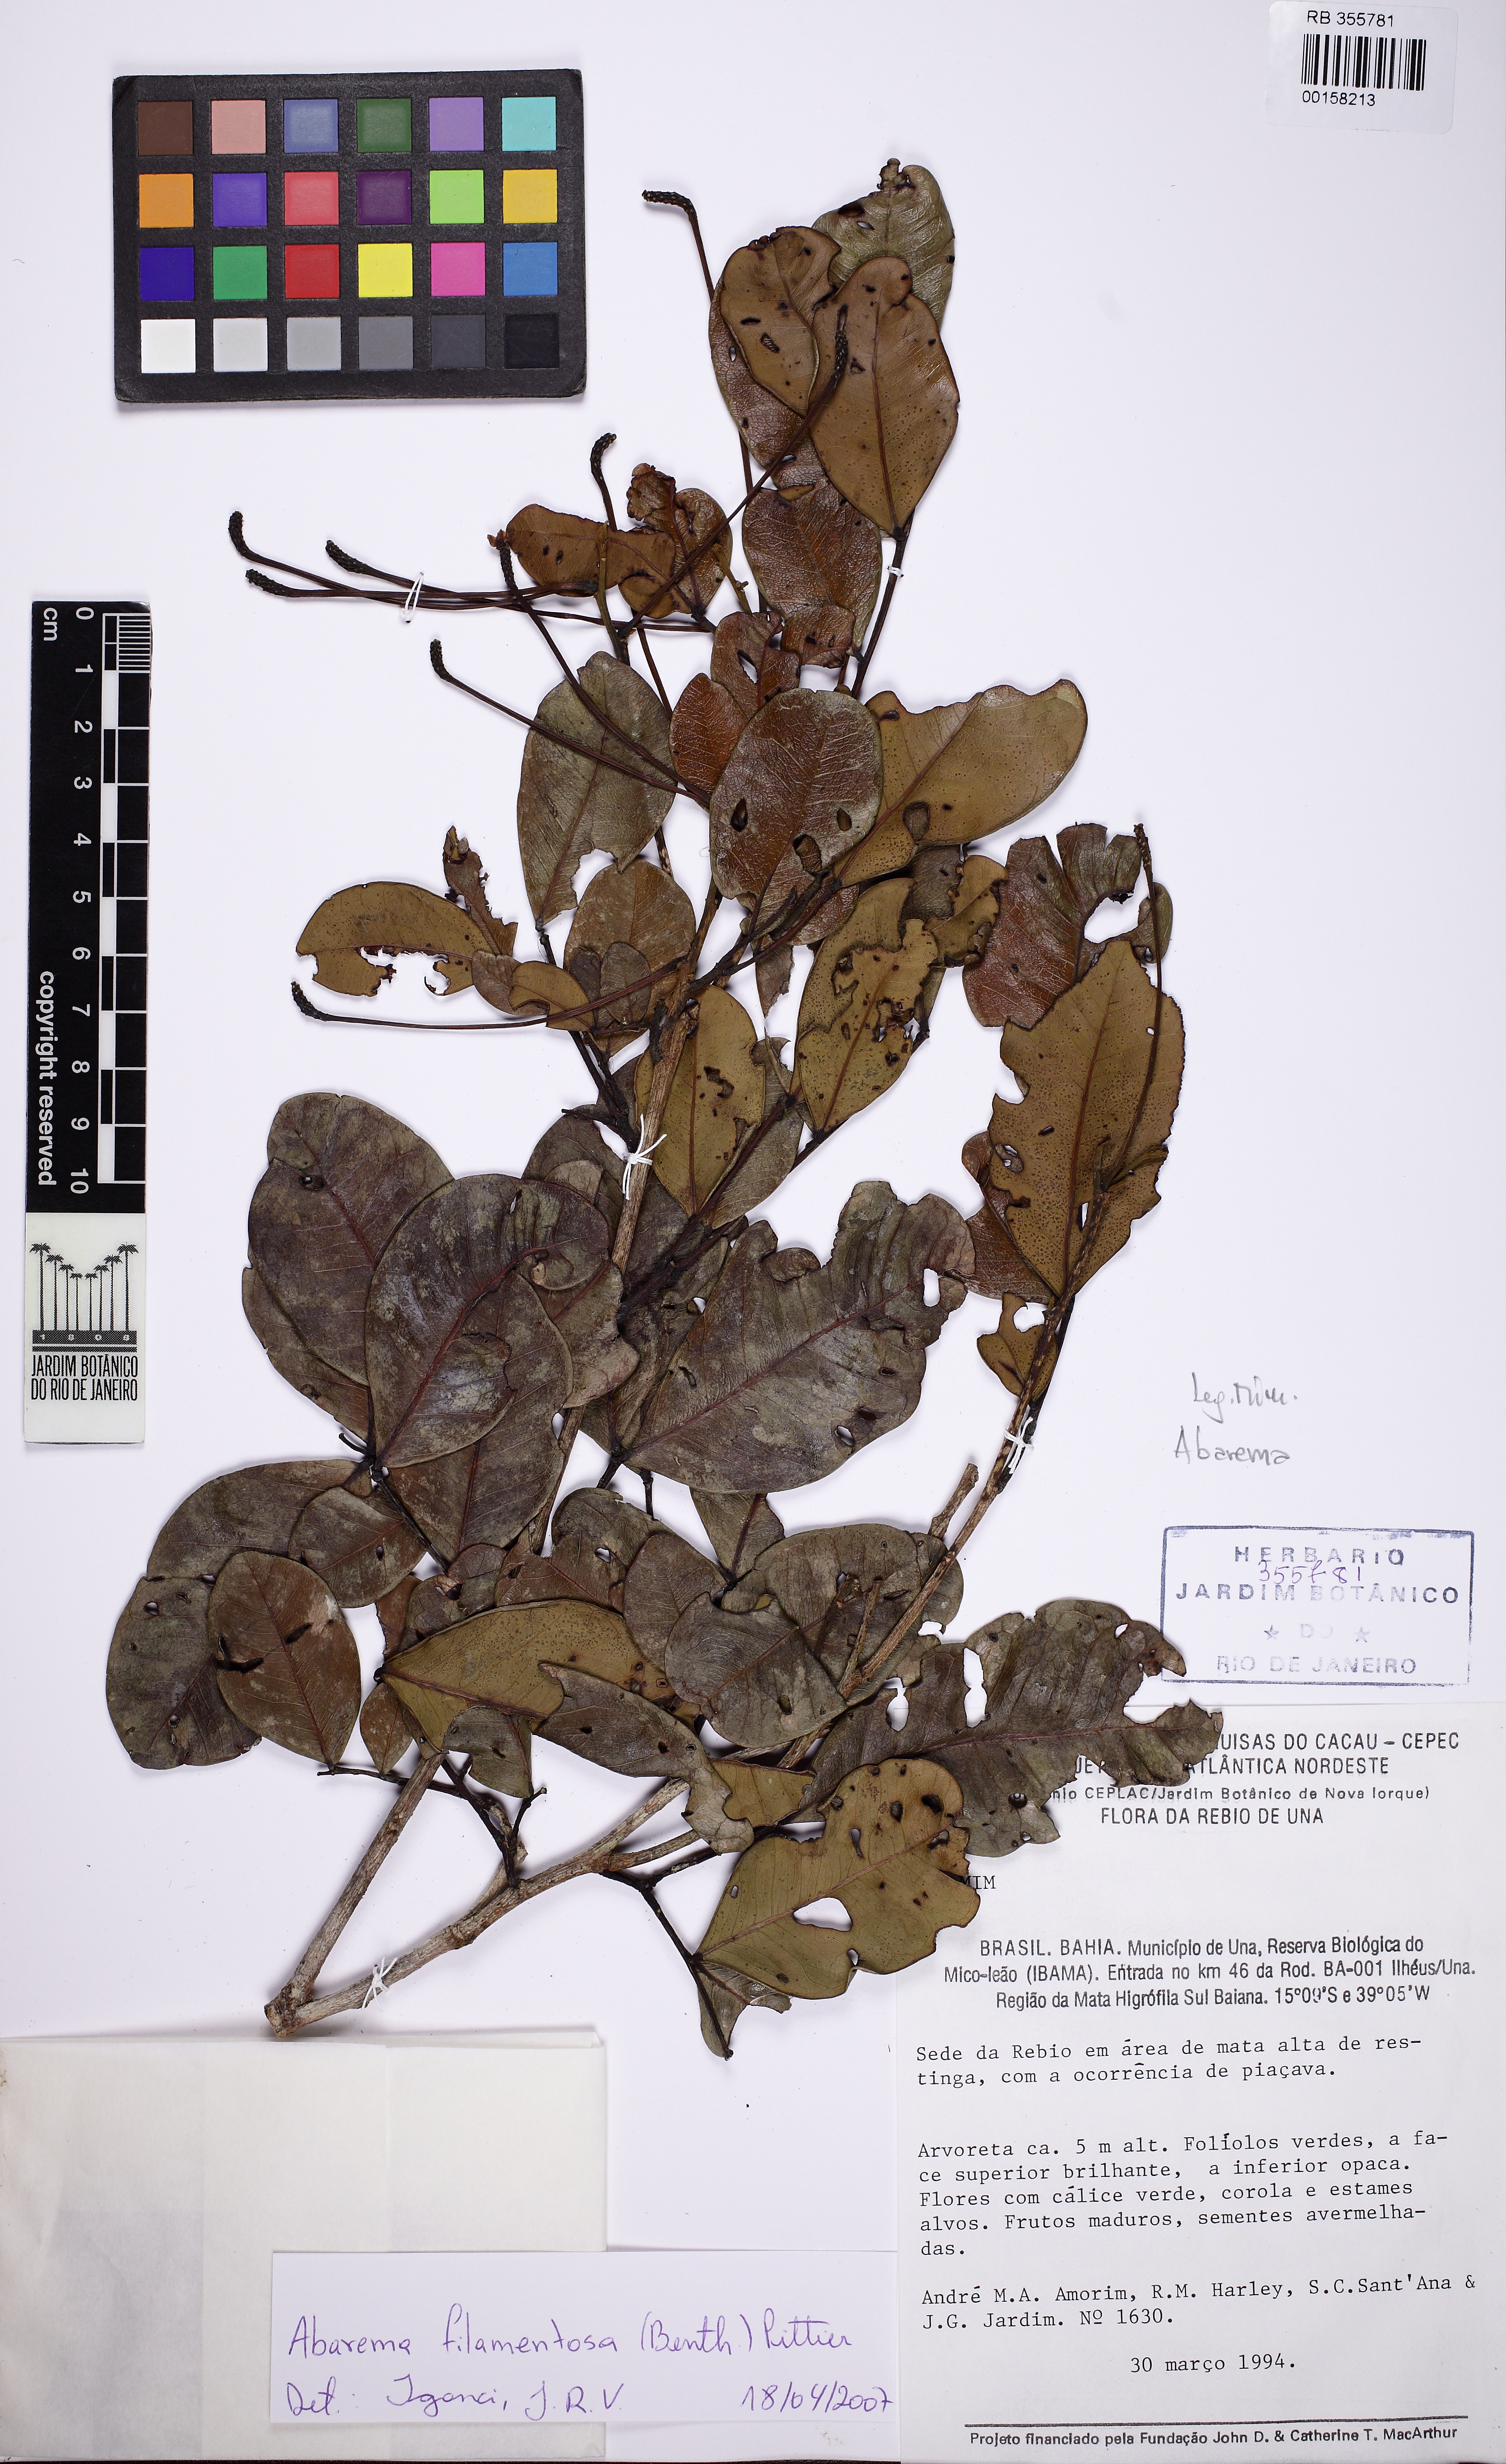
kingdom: Plantae
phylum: Tracheophyta
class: Magnoliopsida
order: Fabales
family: Fabaceae
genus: Abarema
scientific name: Abarema
